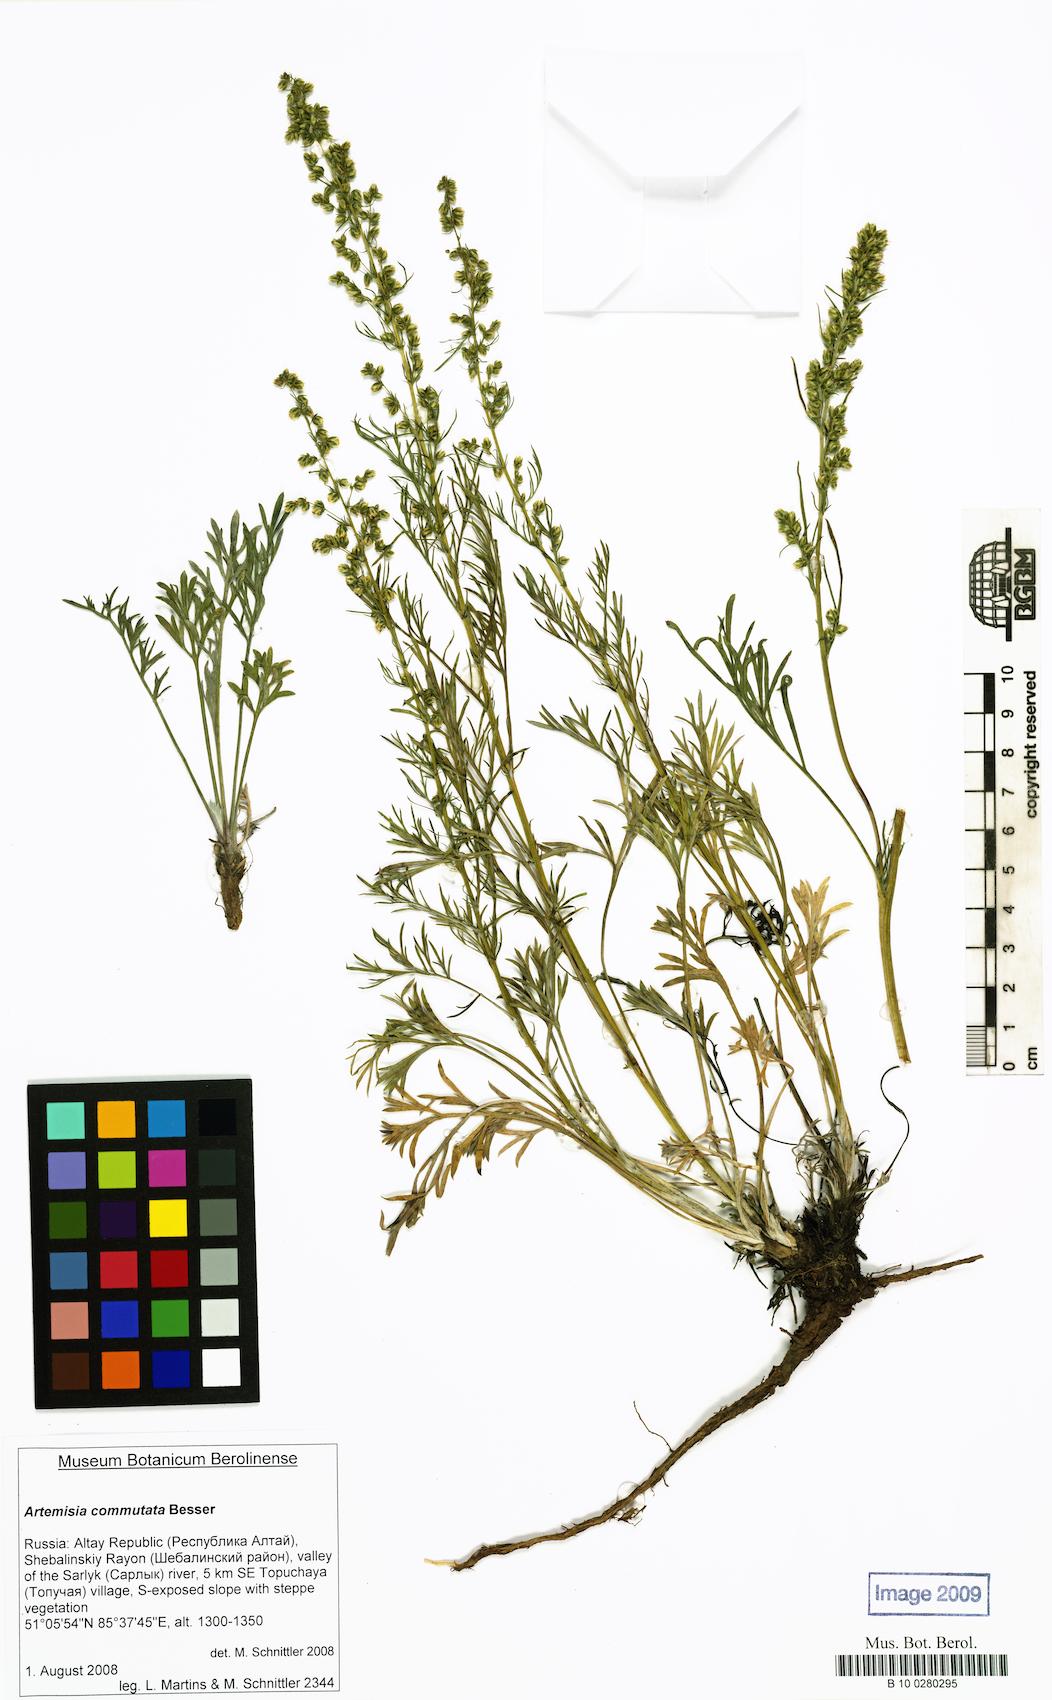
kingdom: Plantae
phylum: Tracheophyta
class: Magnoliopsida
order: Asterales
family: Asteraceae
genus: Artemisia
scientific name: Artemisia pubescens
